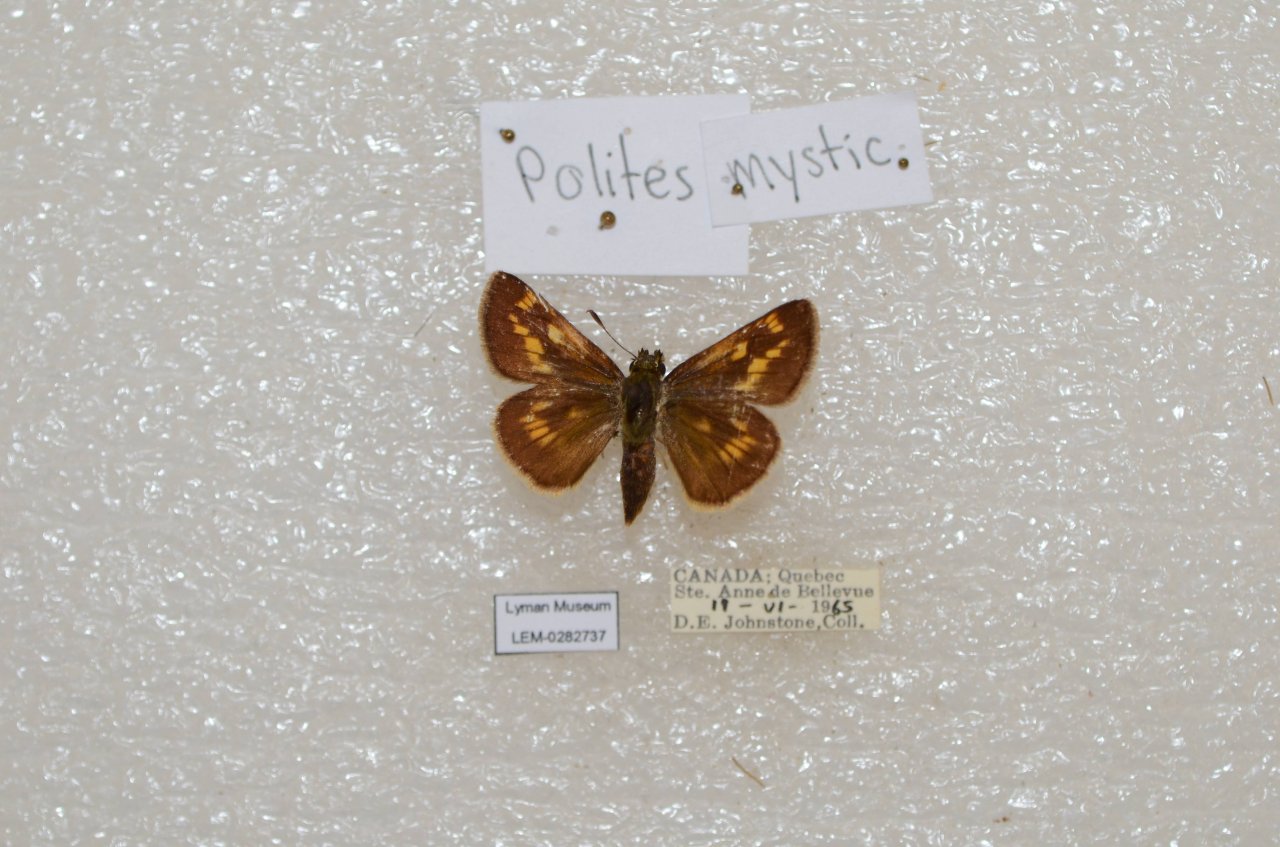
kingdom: Animalia
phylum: Arthropoda
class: Insecta
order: Lepidoptera
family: Hesperiidae
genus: Polites
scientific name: Polites
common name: Long Dash Skipper
